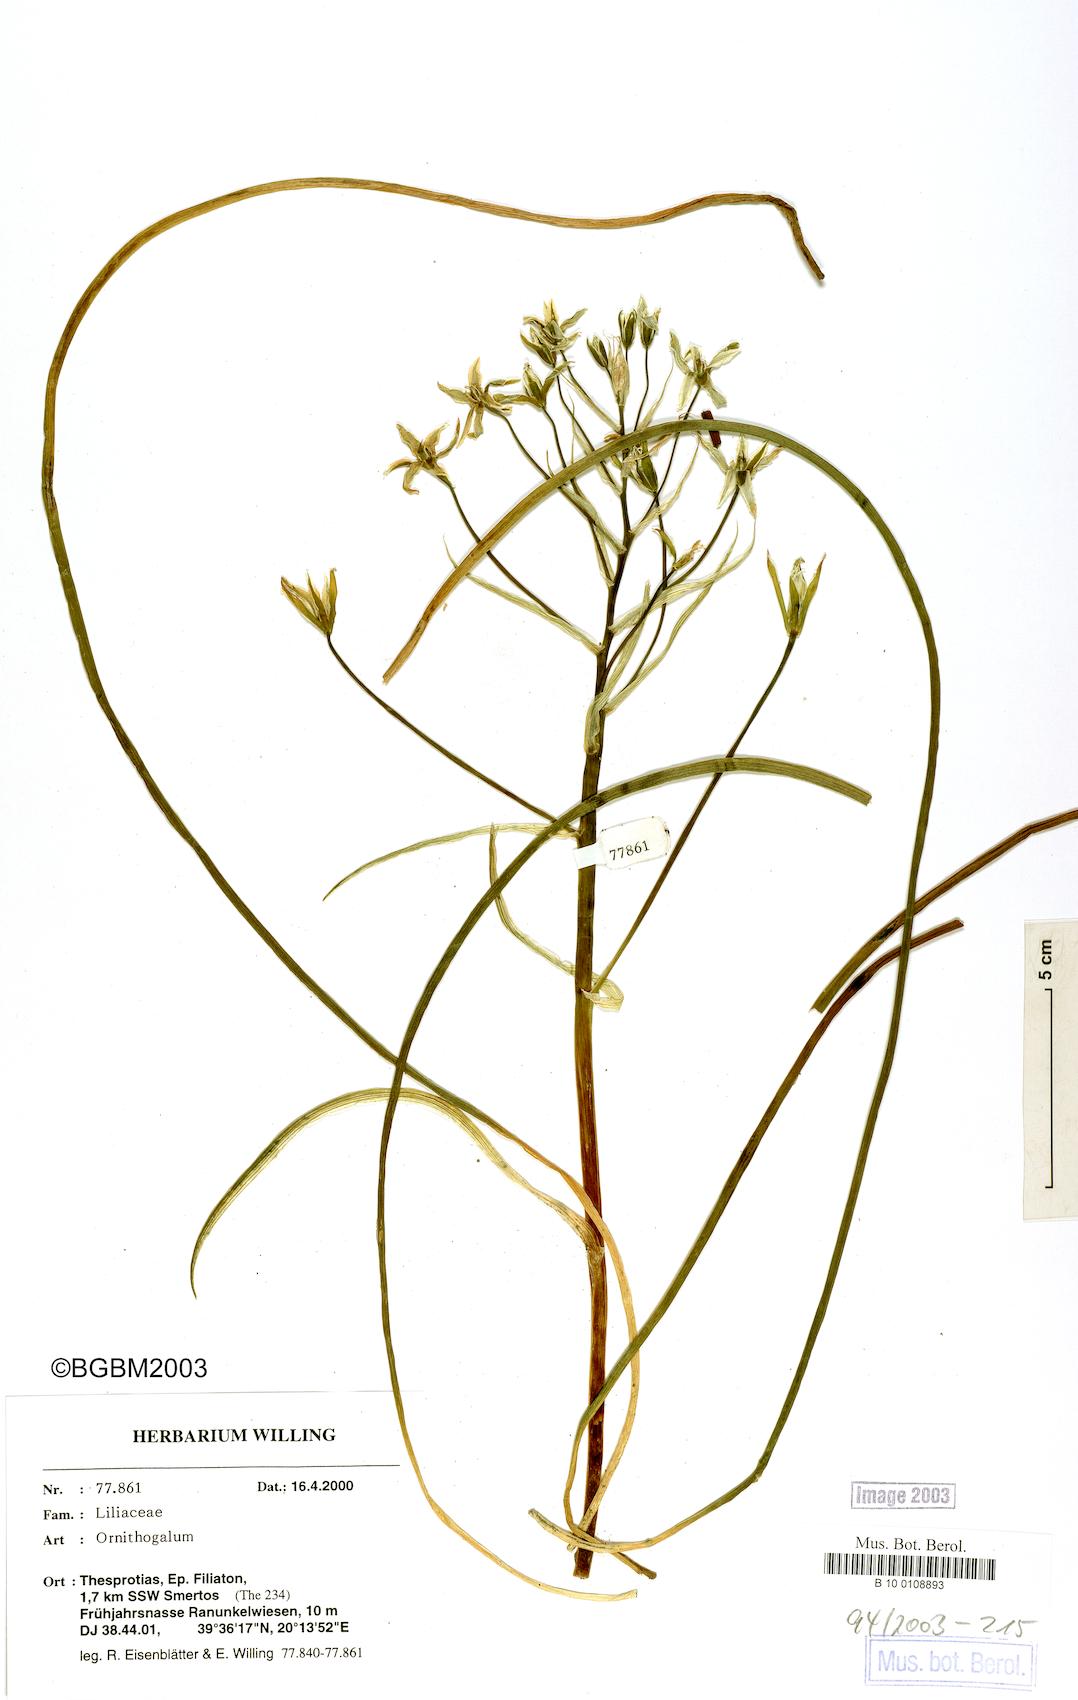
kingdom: Plantae
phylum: Tracheophyta
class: Liliopsida
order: Asparagales
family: Asparagaceae
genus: Ornithogalum
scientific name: Ornithogalum
